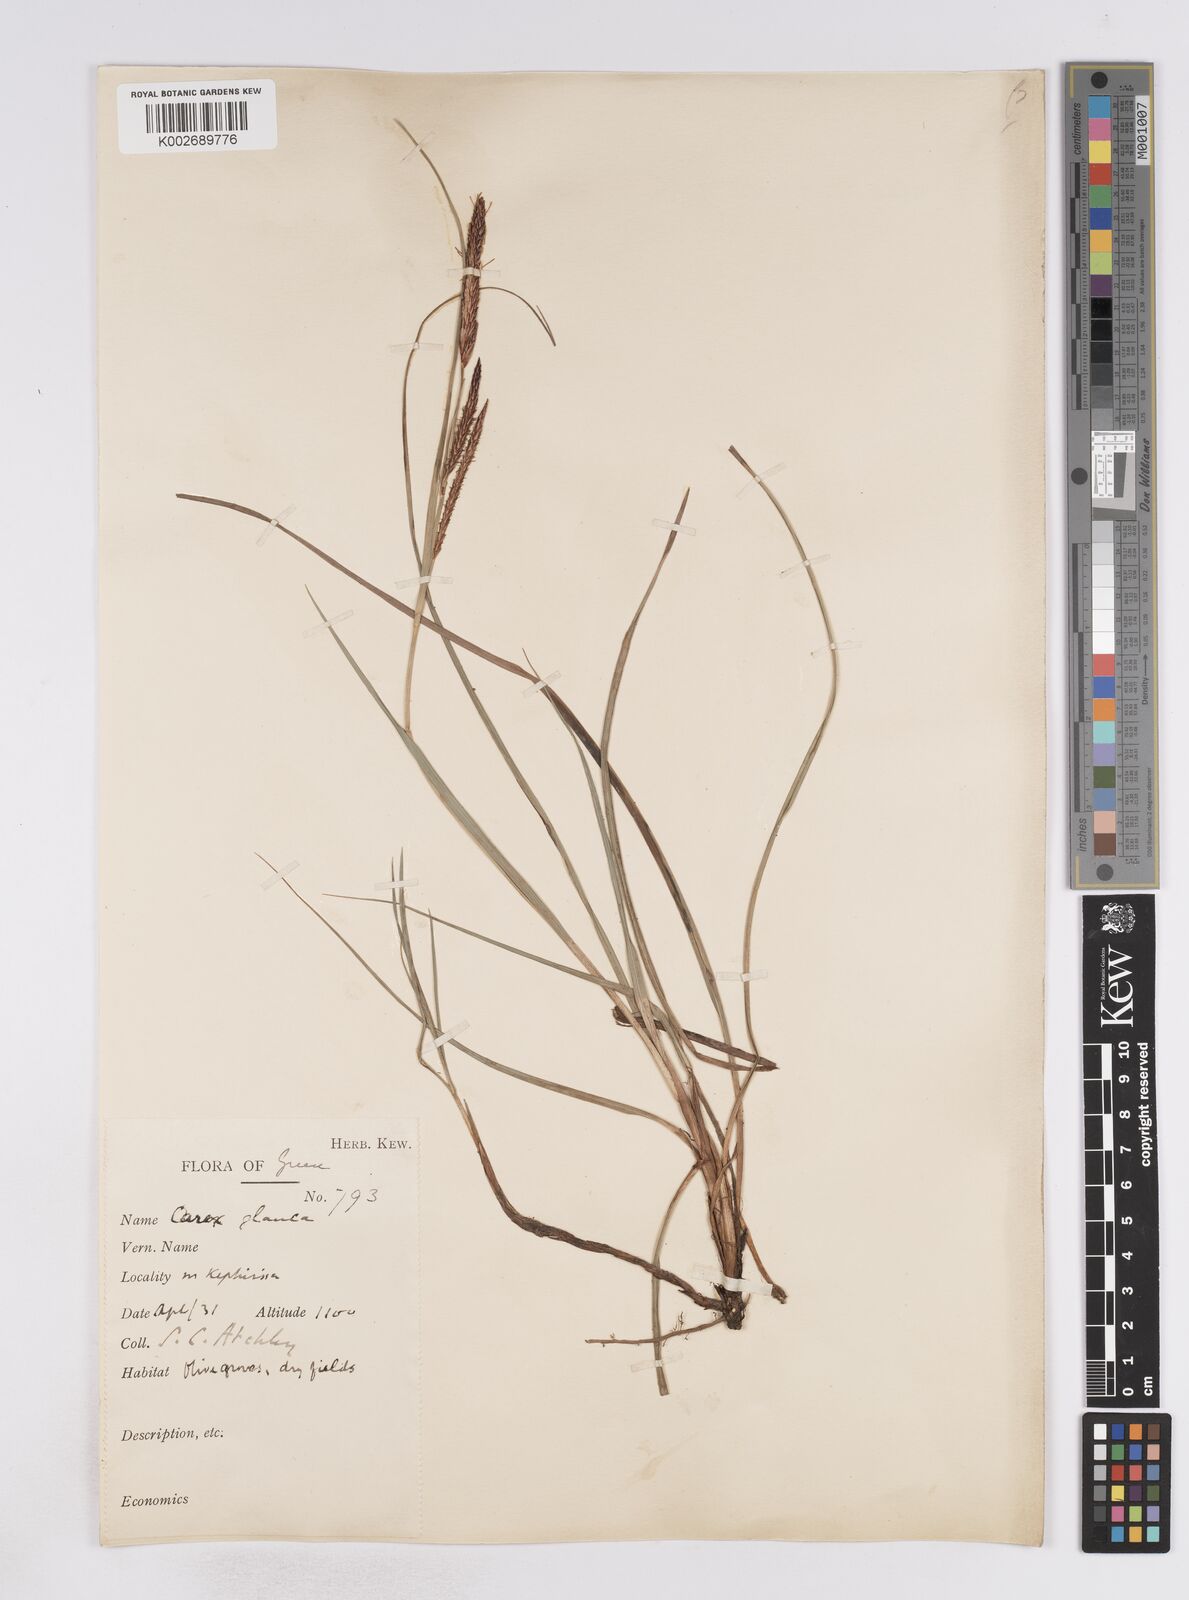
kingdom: Plantae
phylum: Tracheophyta
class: Liliopsida
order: Poales
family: Cyperaceae
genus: Carex
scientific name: Carex flacca
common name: Glaucous sedge
